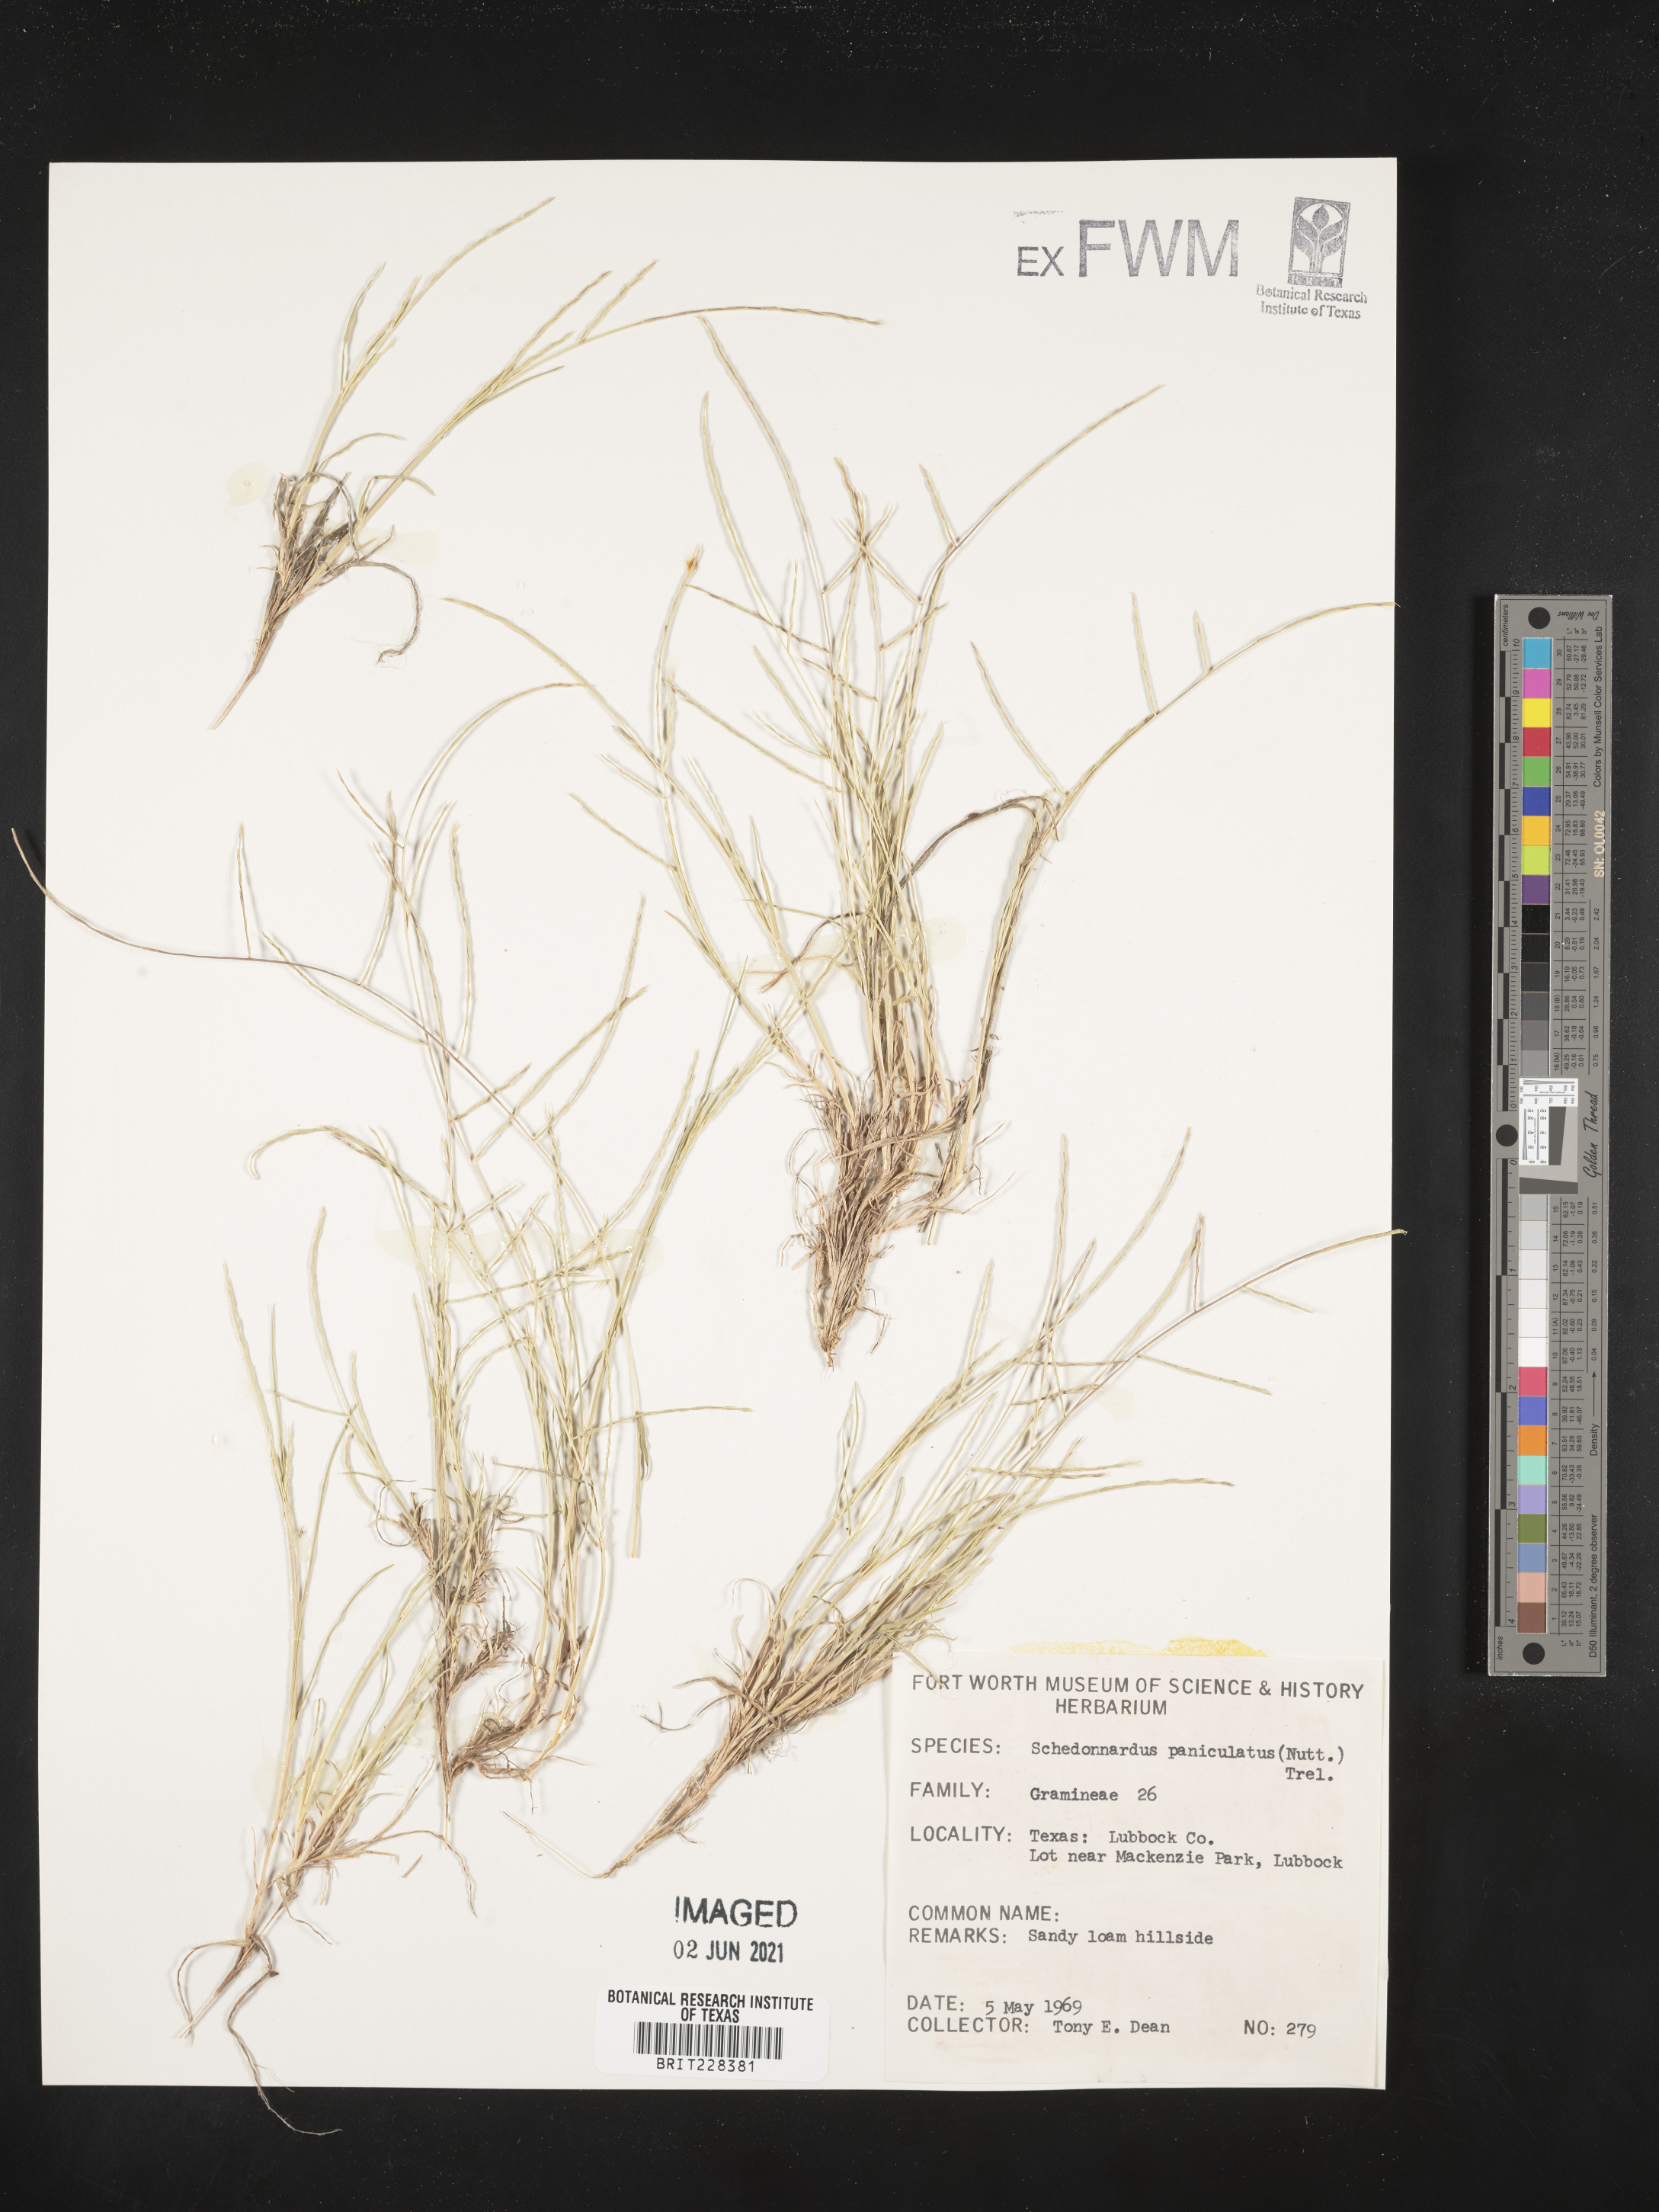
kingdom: Plantae
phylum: Tracheophyta
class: Liliopsida
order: Poales
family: Poaceae
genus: Muhlenbergia
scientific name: Muhlenbergia paniculata
